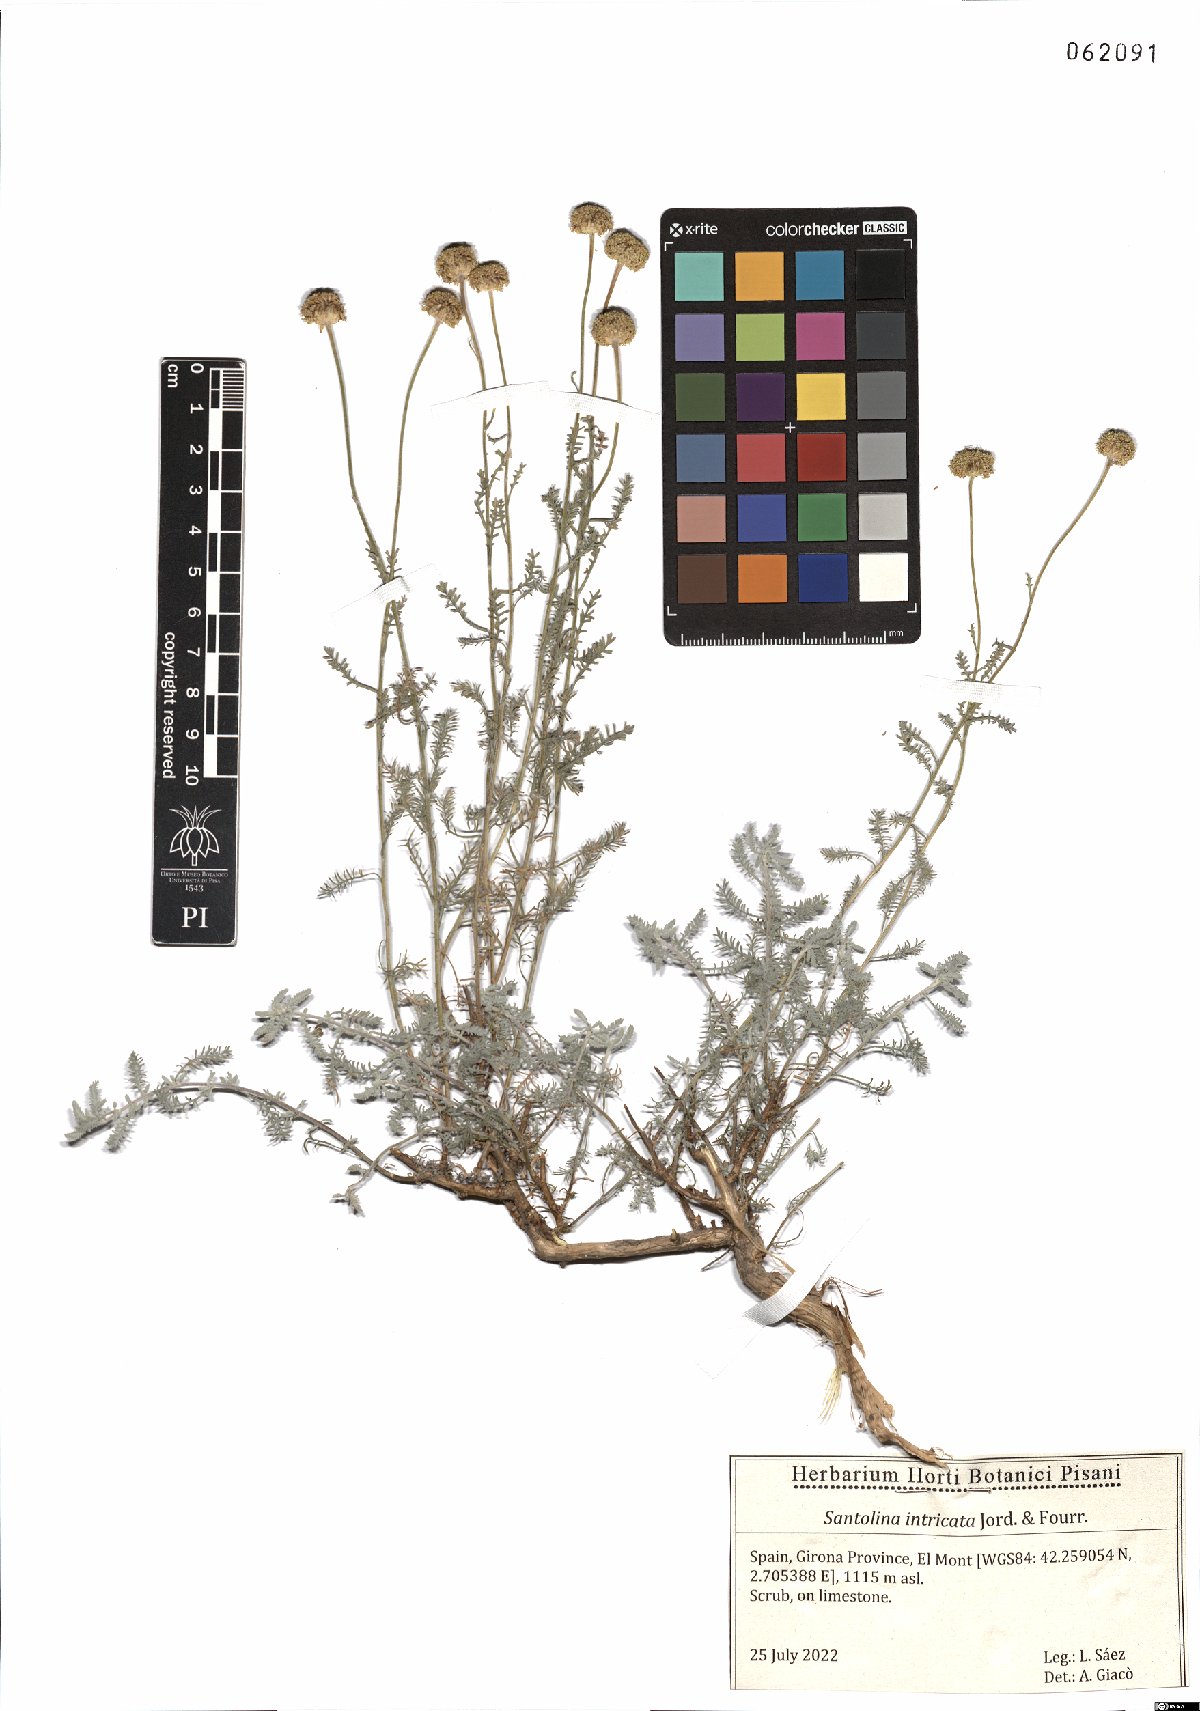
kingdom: Plantae
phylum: Tracheophyta
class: Magnoliopsida
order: Asterales
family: Asteraceae
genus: Santolina
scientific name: Santolina benthamiana
